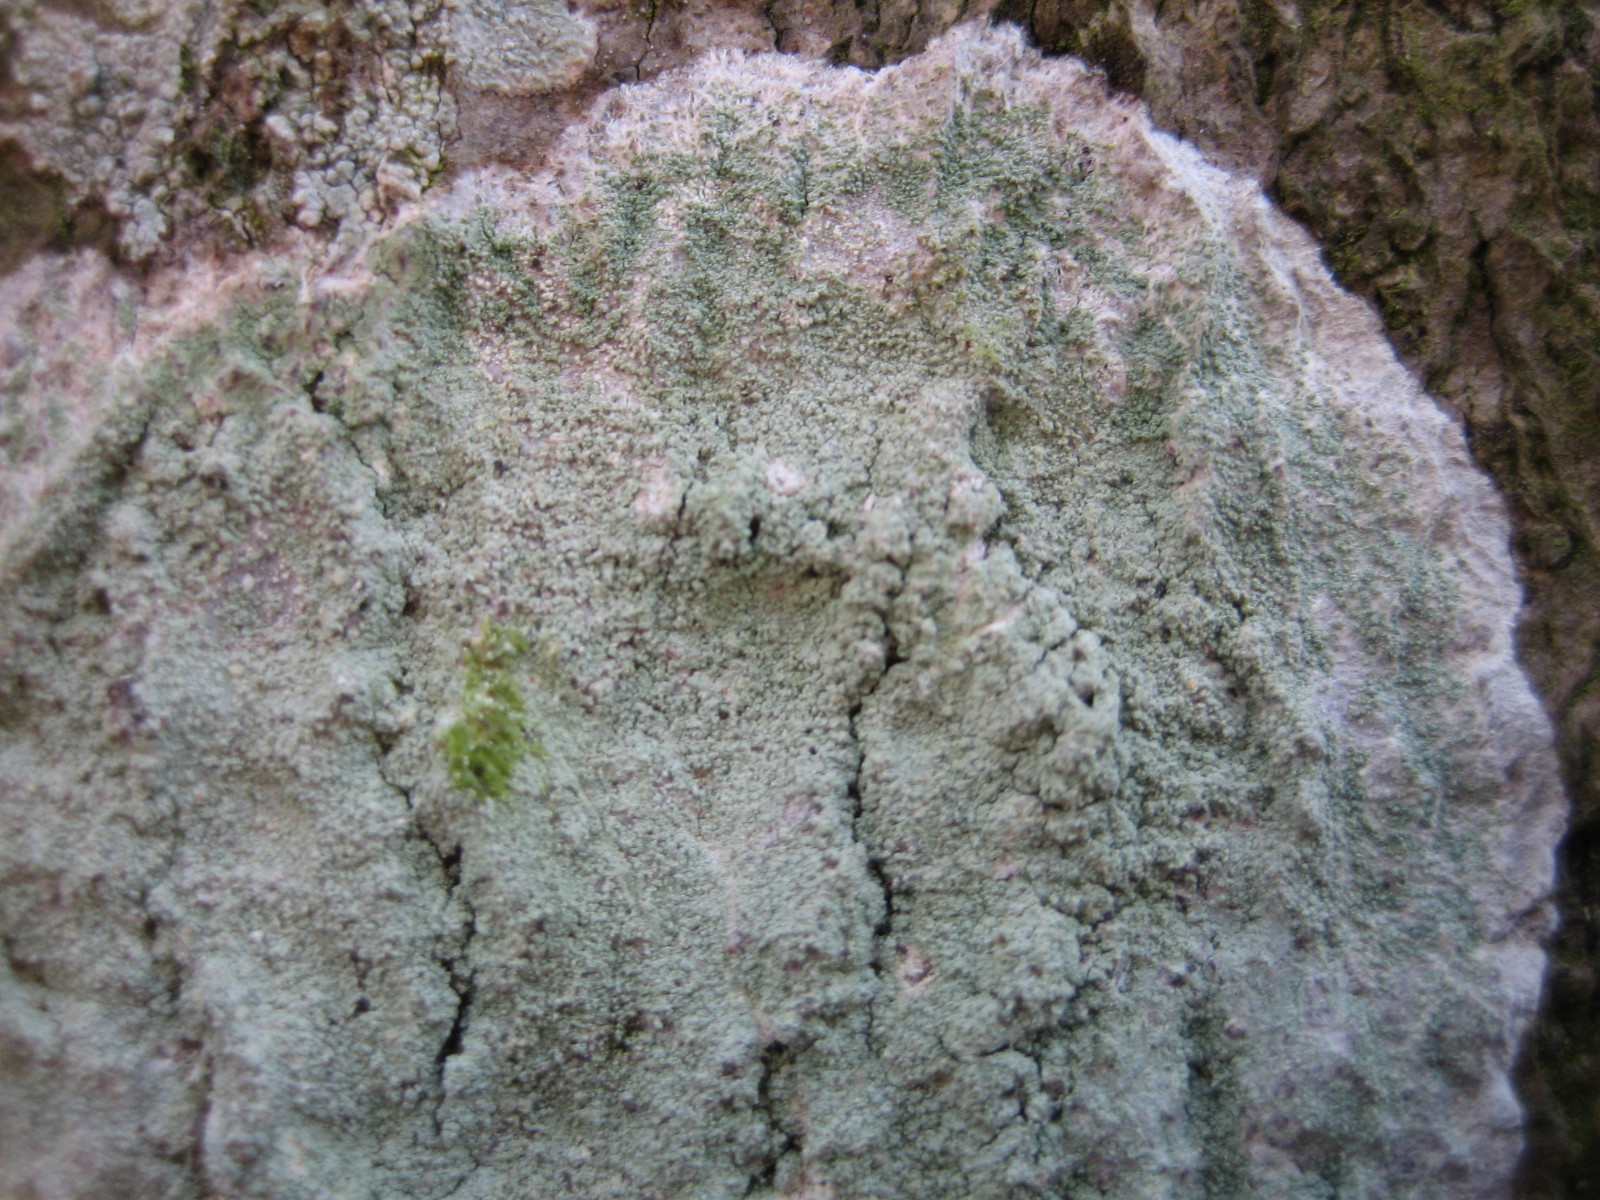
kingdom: Fungi
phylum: Ascomycota
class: Lecanoromycetes
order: Lecanorales
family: Haematommataceae
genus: Haematomma
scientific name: Haematomma ochroleucum
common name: gul trådkantlav
